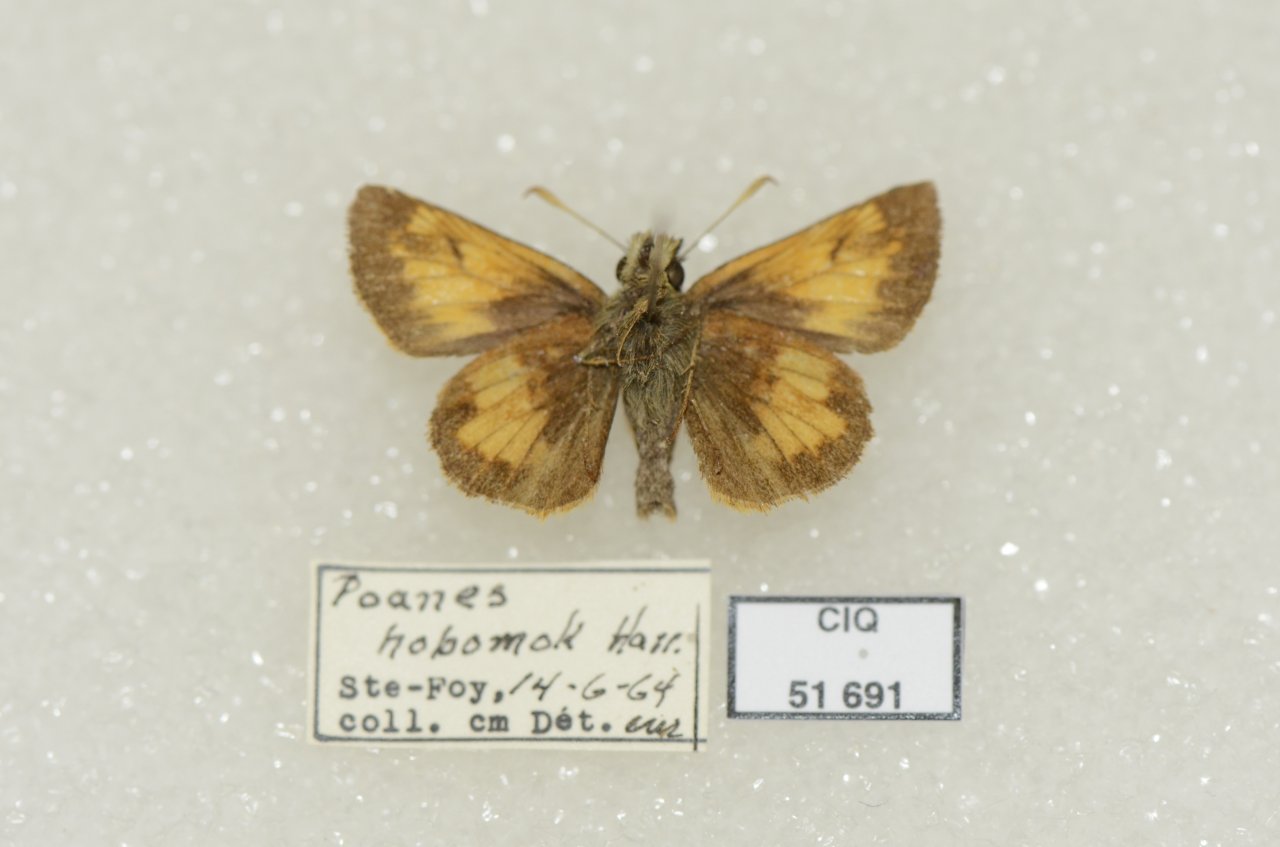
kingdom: Animalia
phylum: Arthropoda
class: Insecta
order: Lepidoptera
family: Hesperiidae
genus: Lon
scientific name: Lon hobomok
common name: Hobomok Skipper
